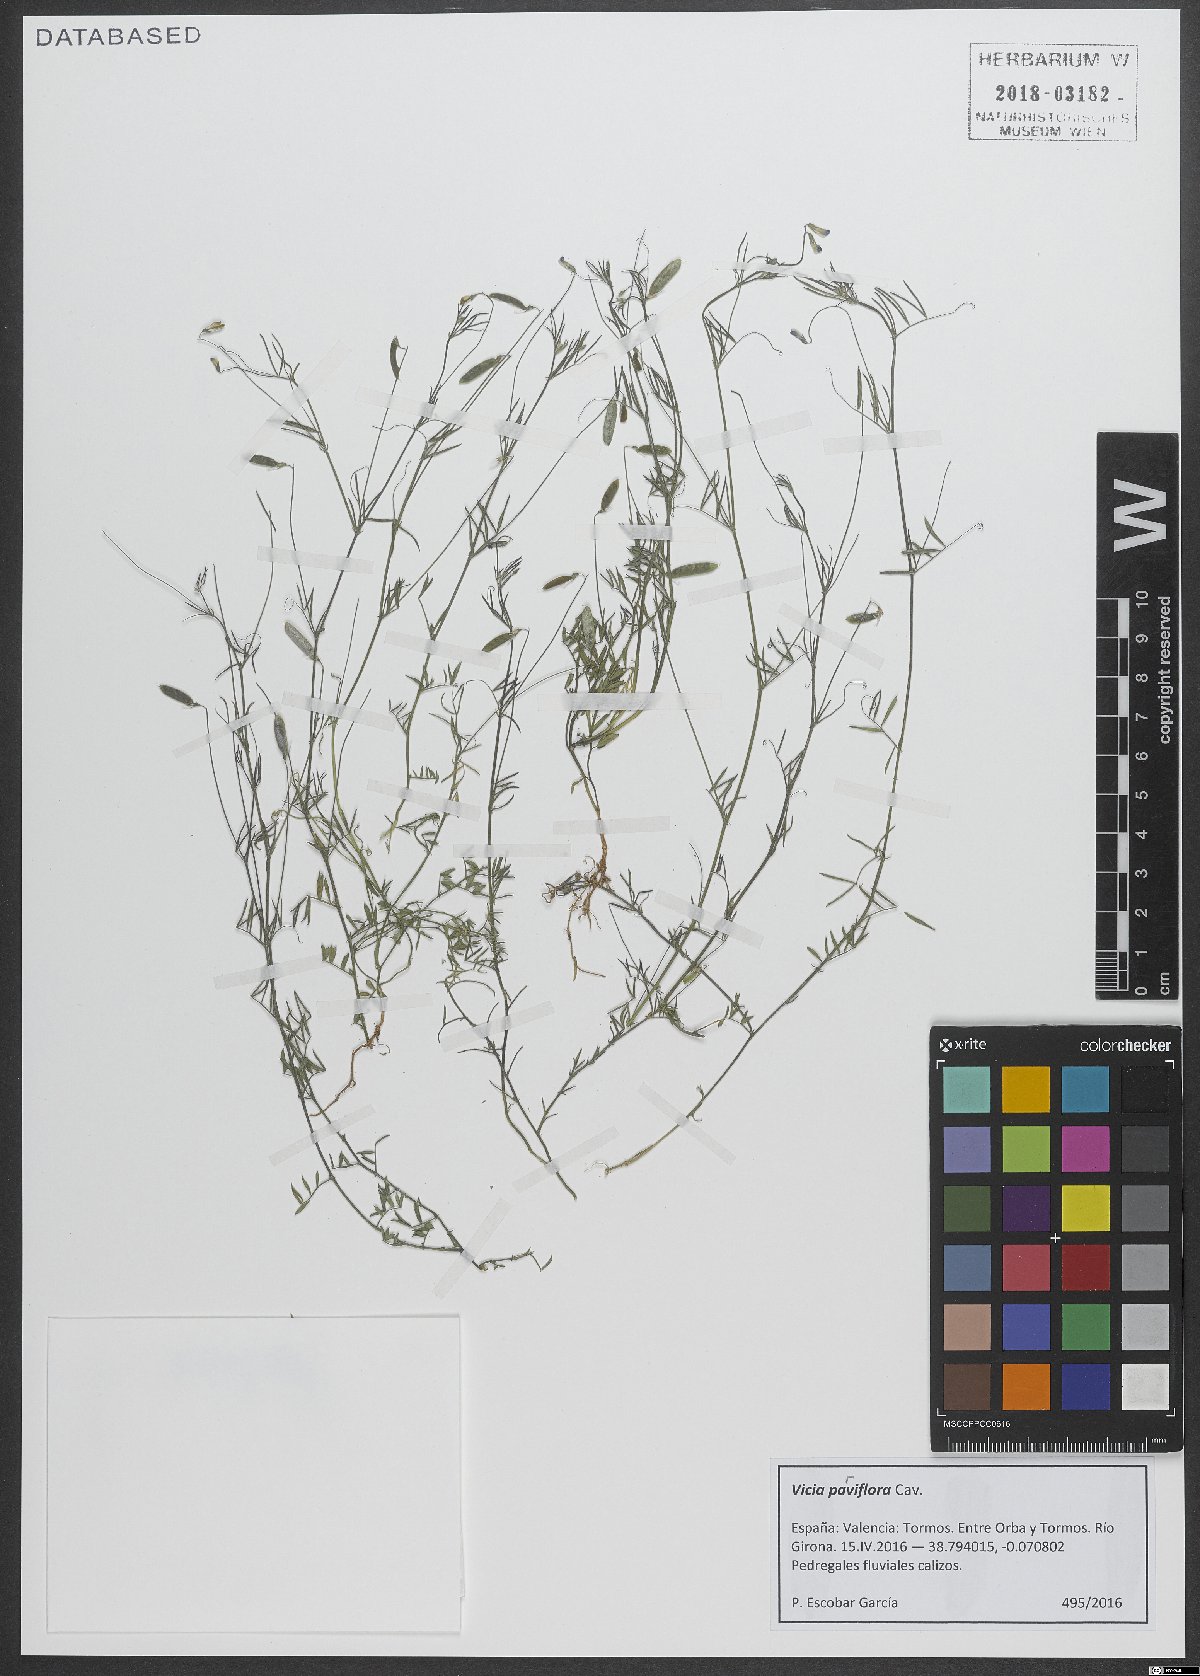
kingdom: Plantae
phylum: Tracheophyta
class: Magnoliopsida
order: Fabales
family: Fabaceae
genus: Vicia
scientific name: Vicia parviflora
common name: Slender tare
